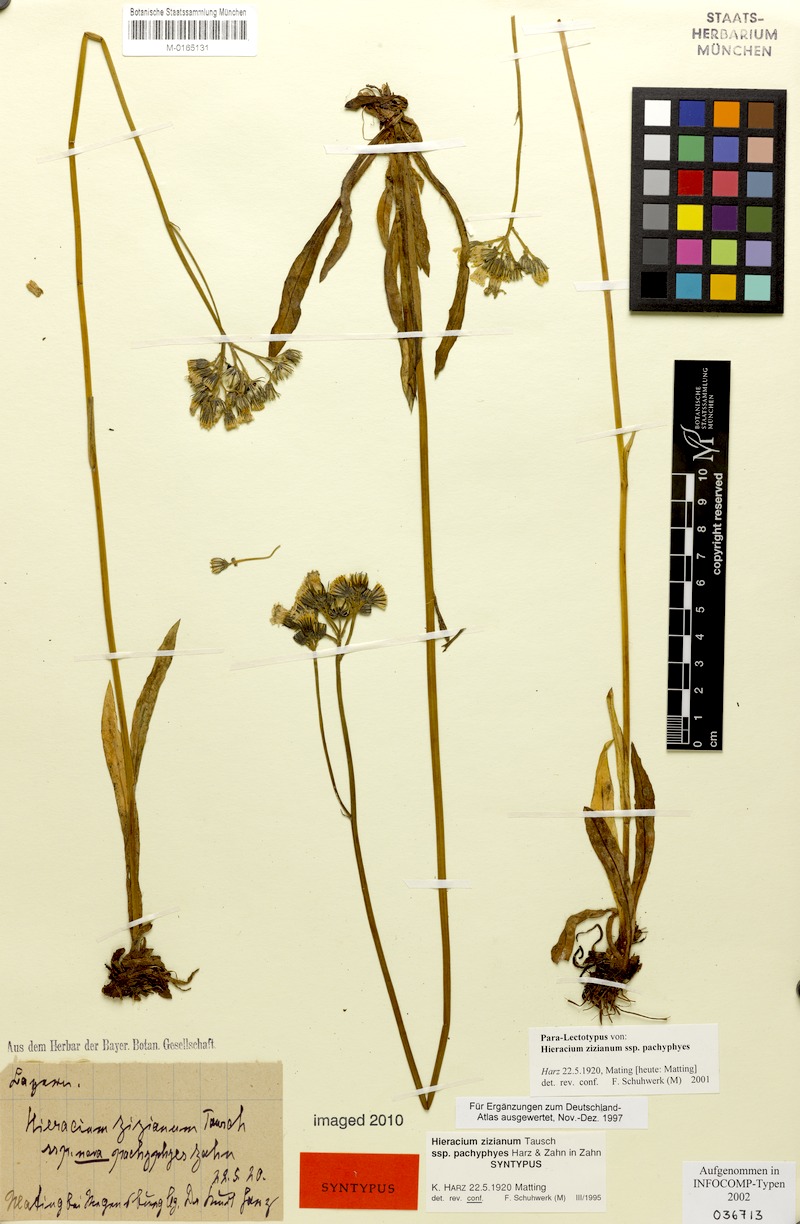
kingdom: Plantae
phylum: Tracheophyta
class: Magnoliopsida
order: Asterales
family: Asteraceae
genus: Pilosella
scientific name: Pilosella ziziana
